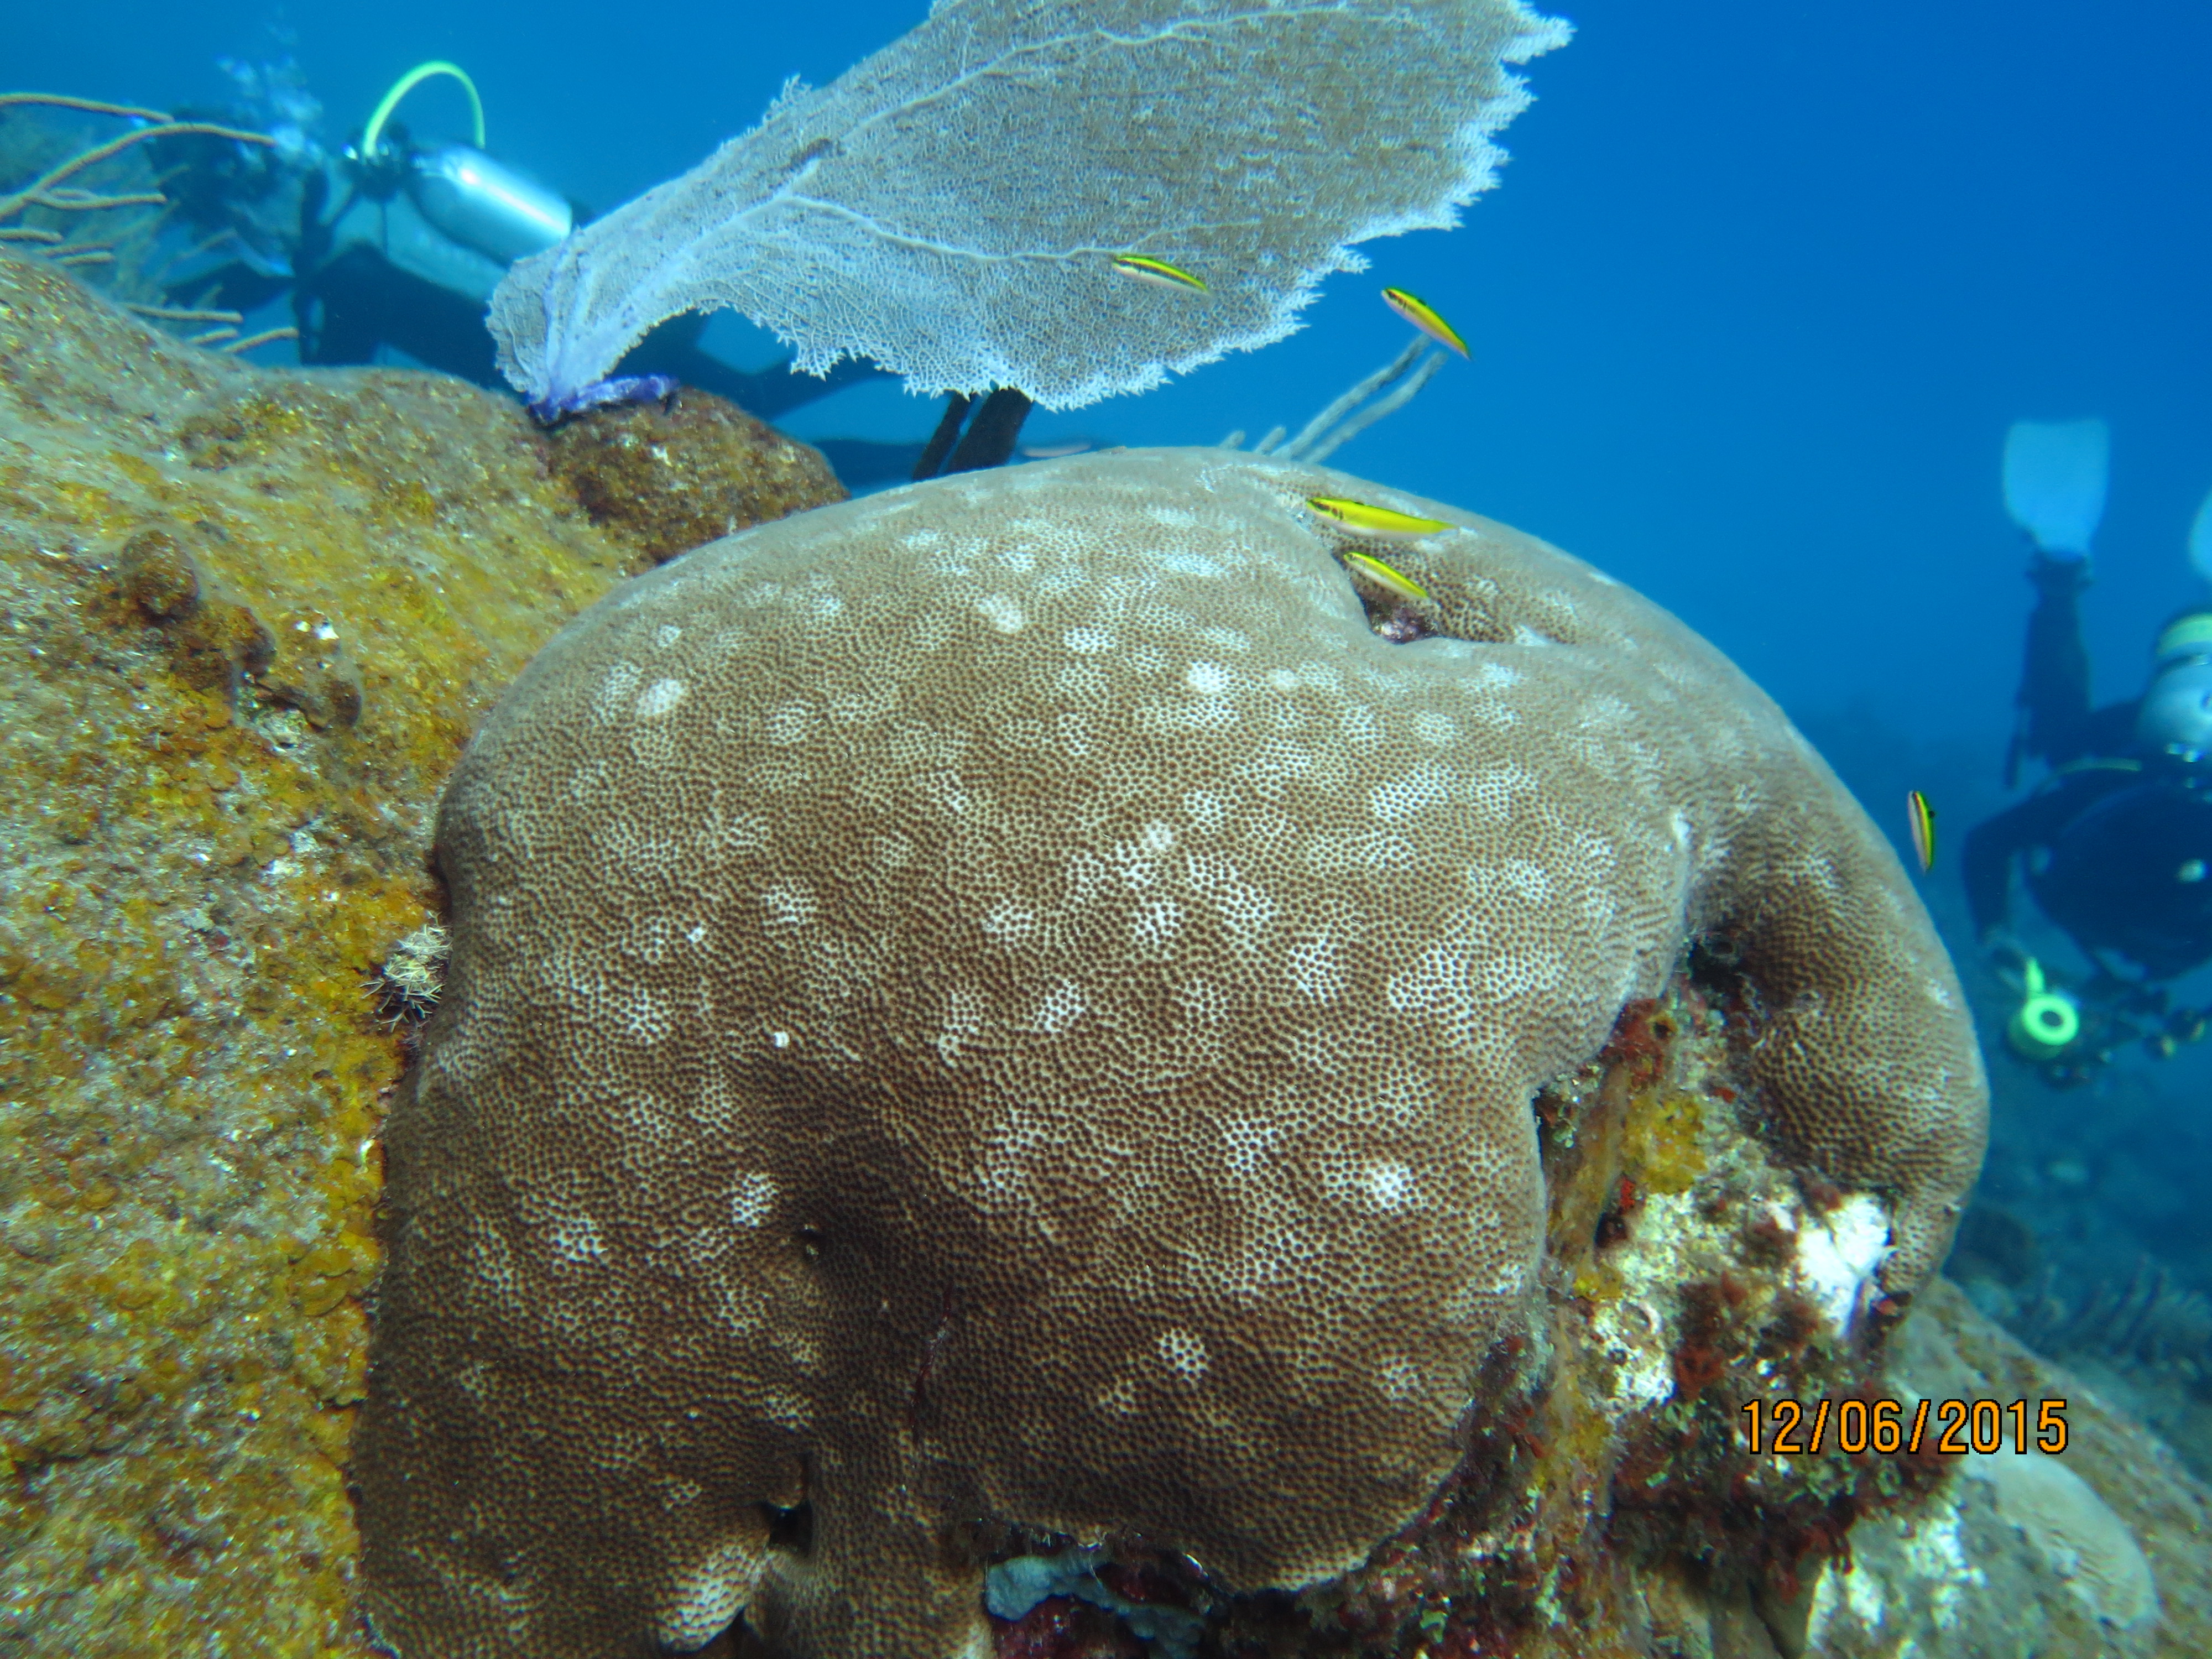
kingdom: Animalia
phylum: Cnidaria
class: Anthozoa
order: Scleractinia
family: Poritidae
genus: Porites
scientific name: Porites astreoides
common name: Mustard hill coral
